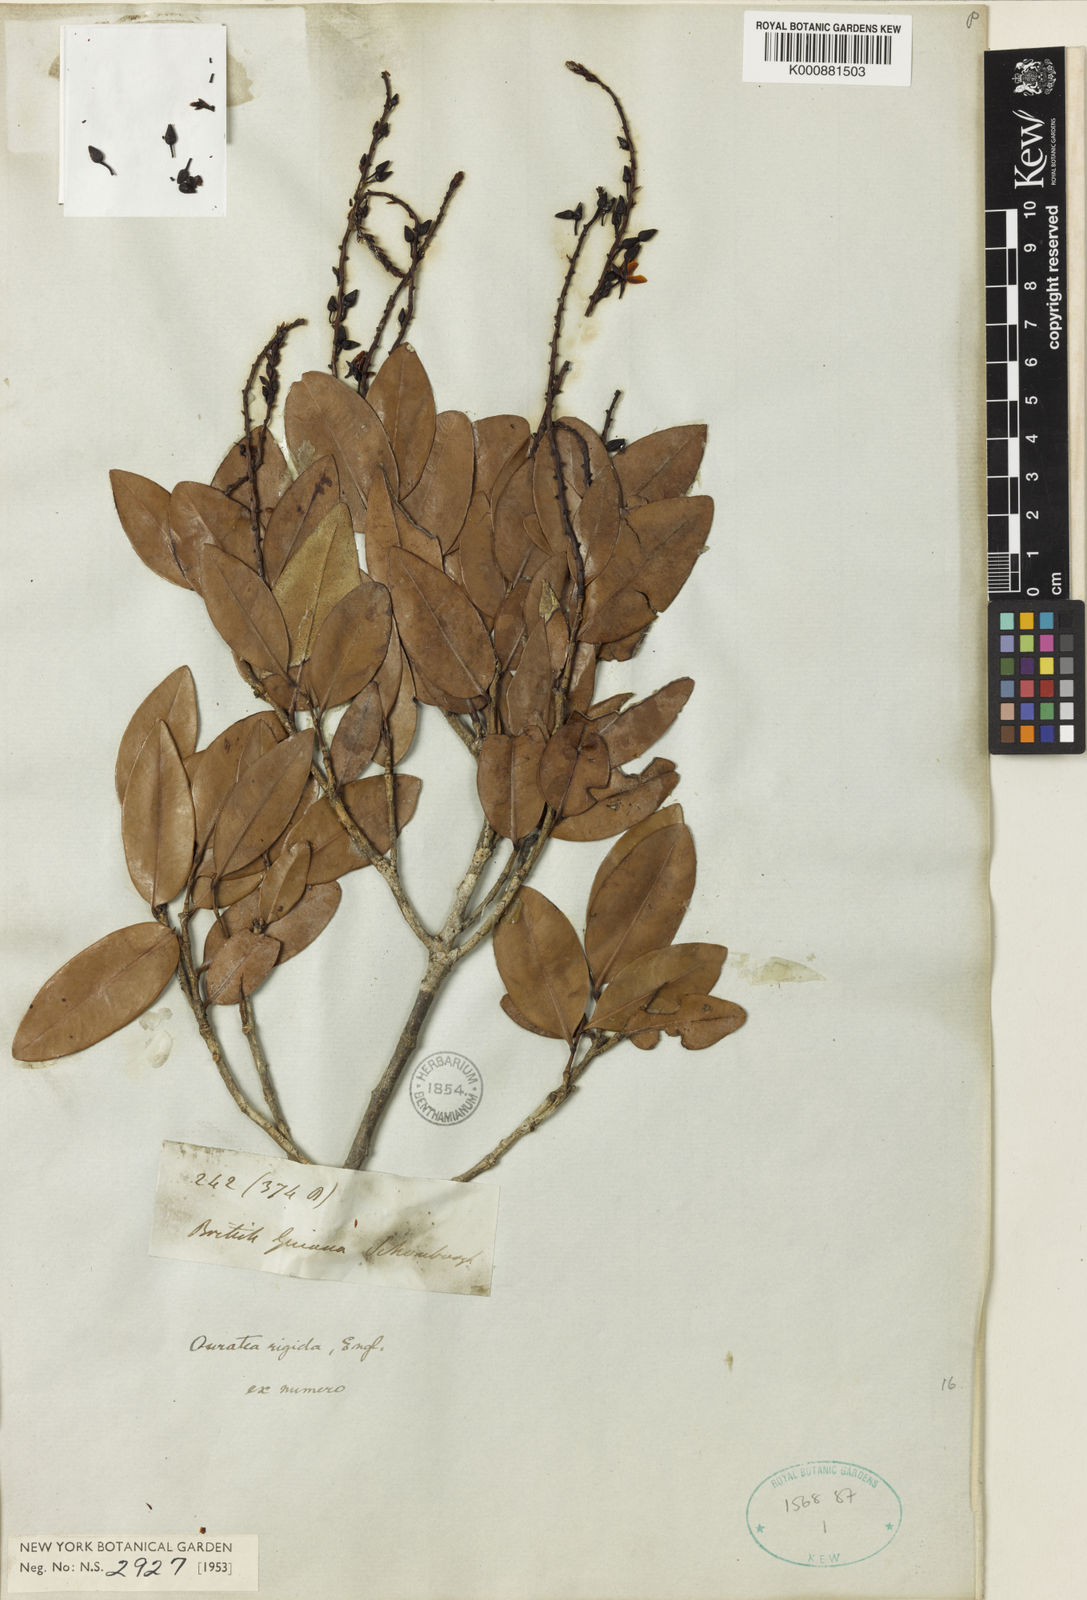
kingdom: Plantae
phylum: Tracheophyta
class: Magnoliopsida
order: Malpighiales
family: Ochnaceae
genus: Ouratea
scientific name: Ouratea rigida
